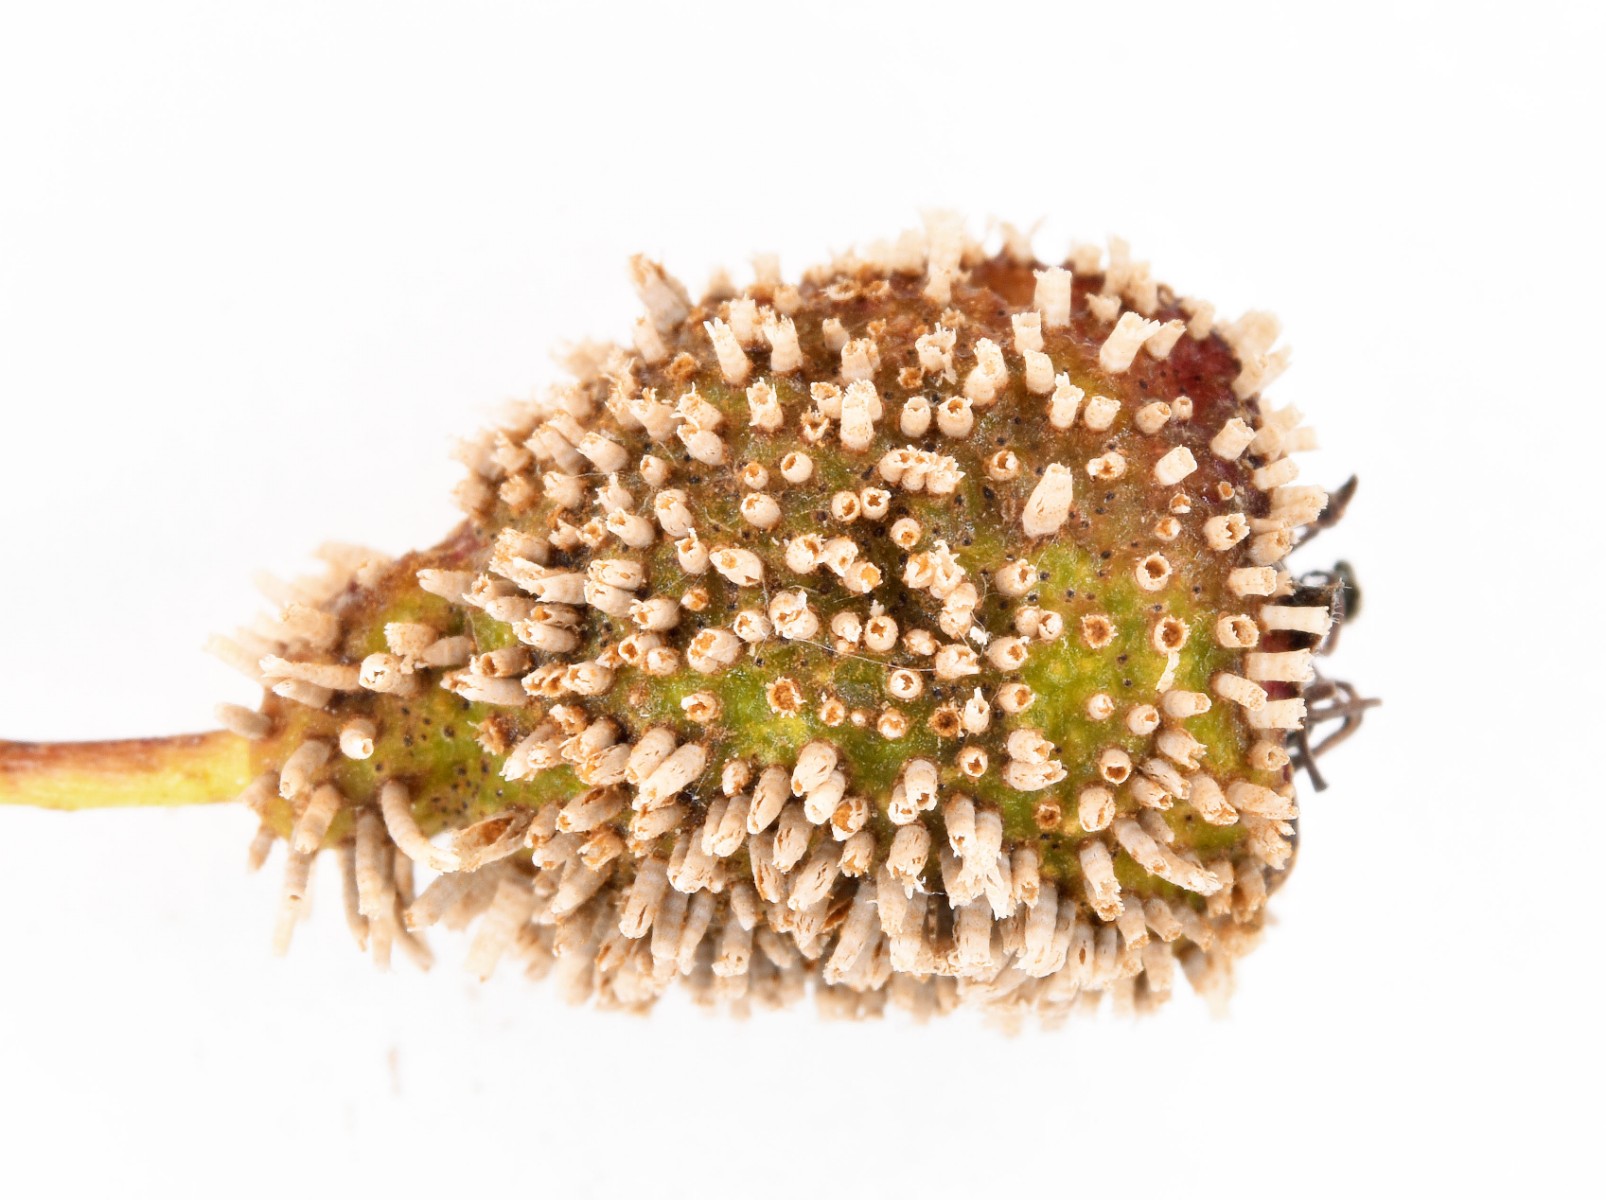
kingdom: Fungi
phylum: Basidiomycota
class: Pucciniomycetes
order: Pucciniales
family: Gymnosporangiaceae
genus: Gymnosporangium
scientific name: Gymnosporangium
